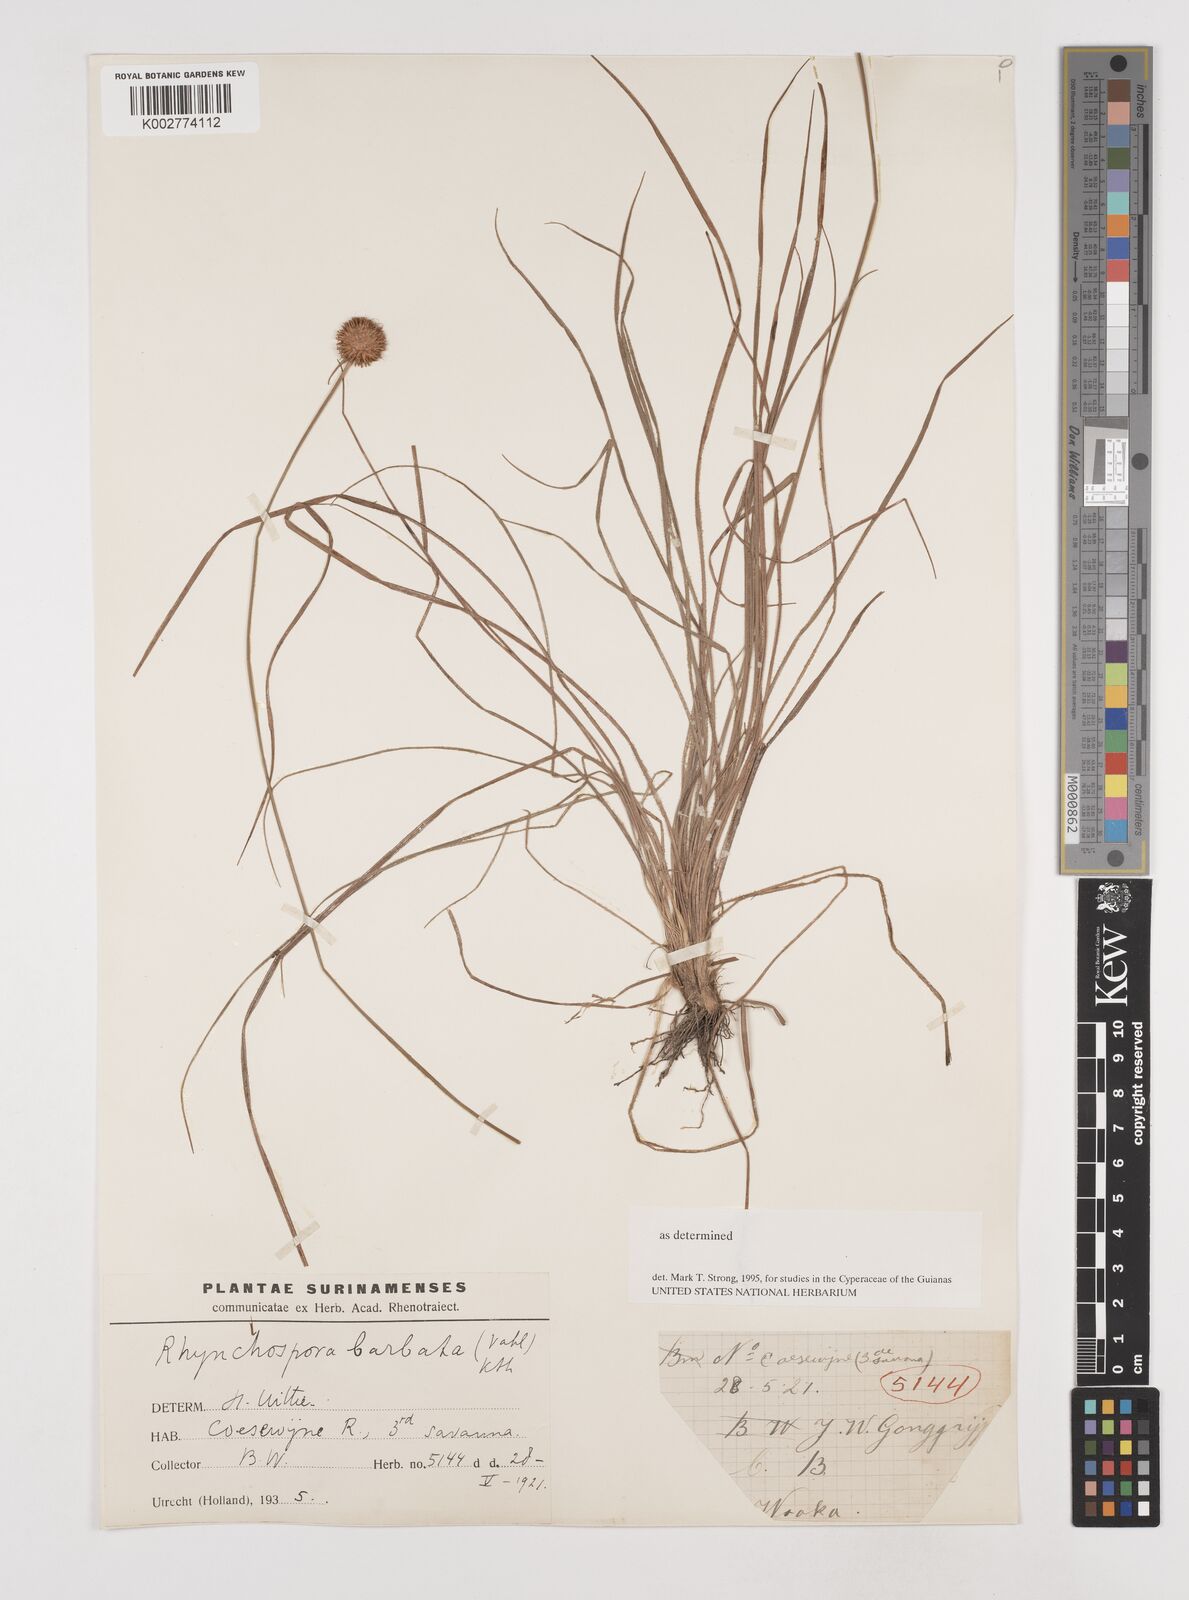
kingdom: Plantae
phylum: Tracheophyta
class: Liliopsida
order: Poales
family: Cyperaceae
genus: Rhynchospora
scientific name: Rhynchospora barbata
